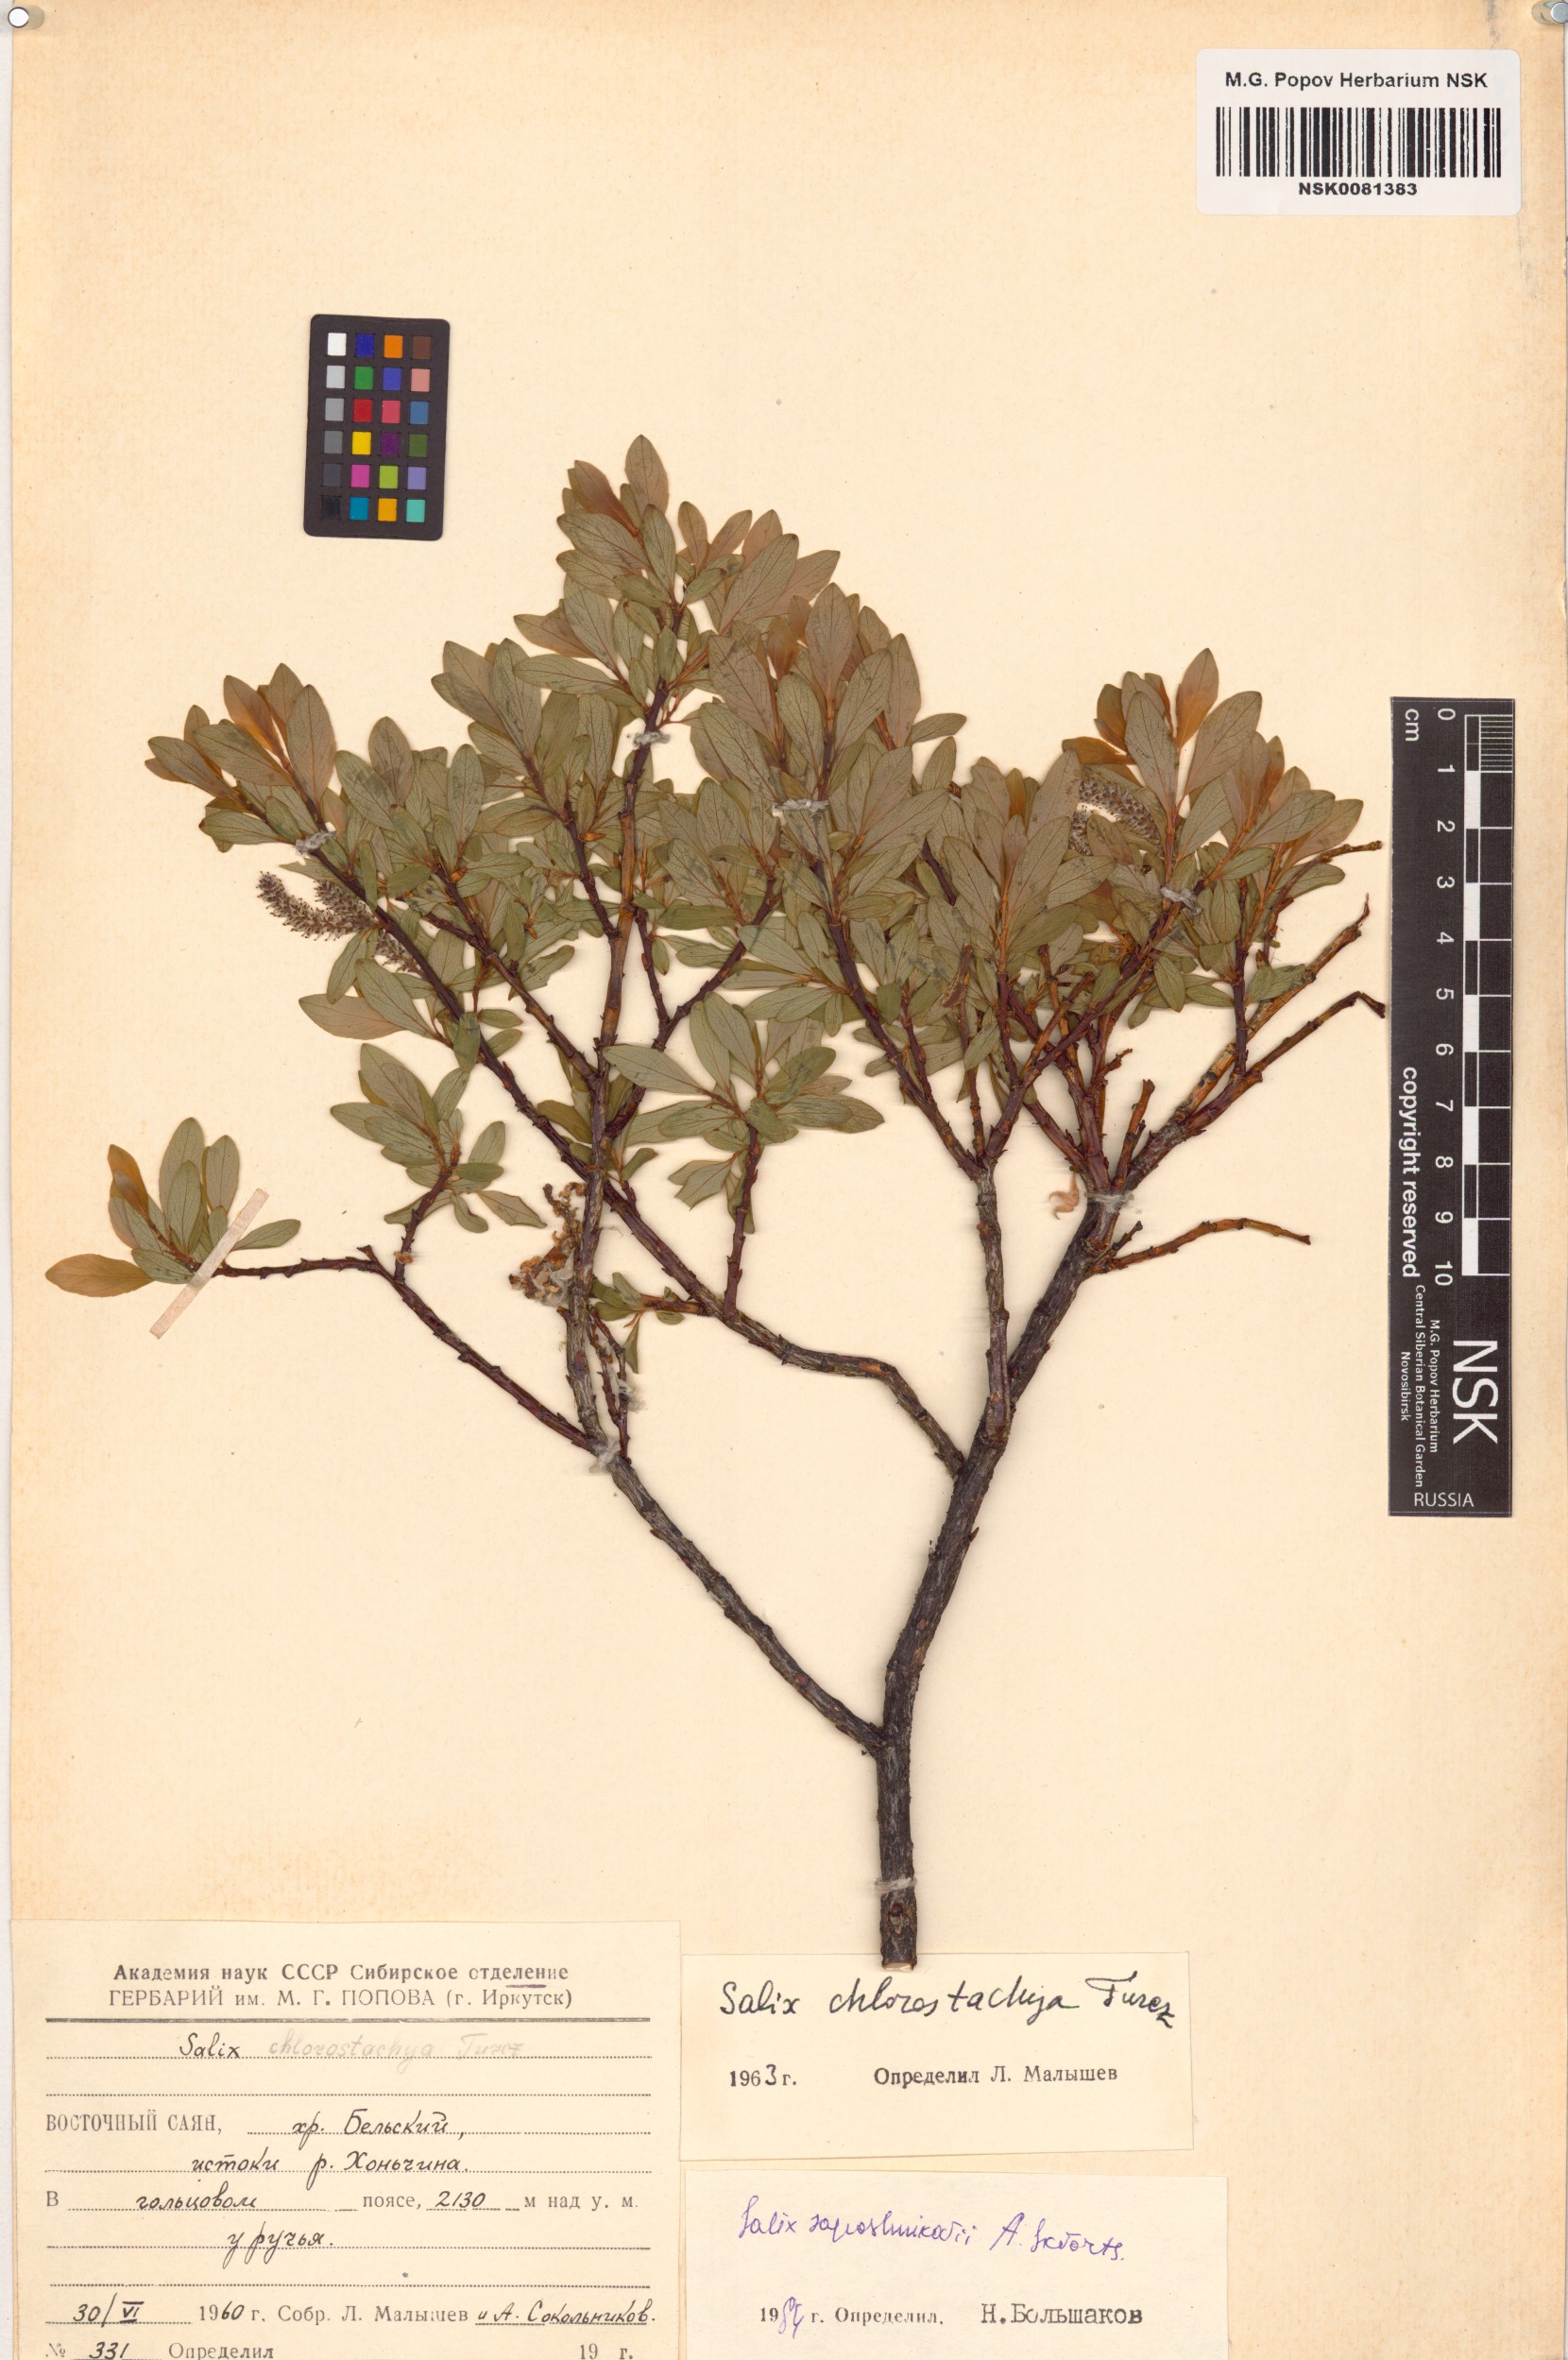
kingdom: Plantae
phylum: Tracheophyta
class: Magnoliopsida
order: Malpighiales
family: Salicaceae
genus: Salix
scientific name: Salix saposhnikovii
